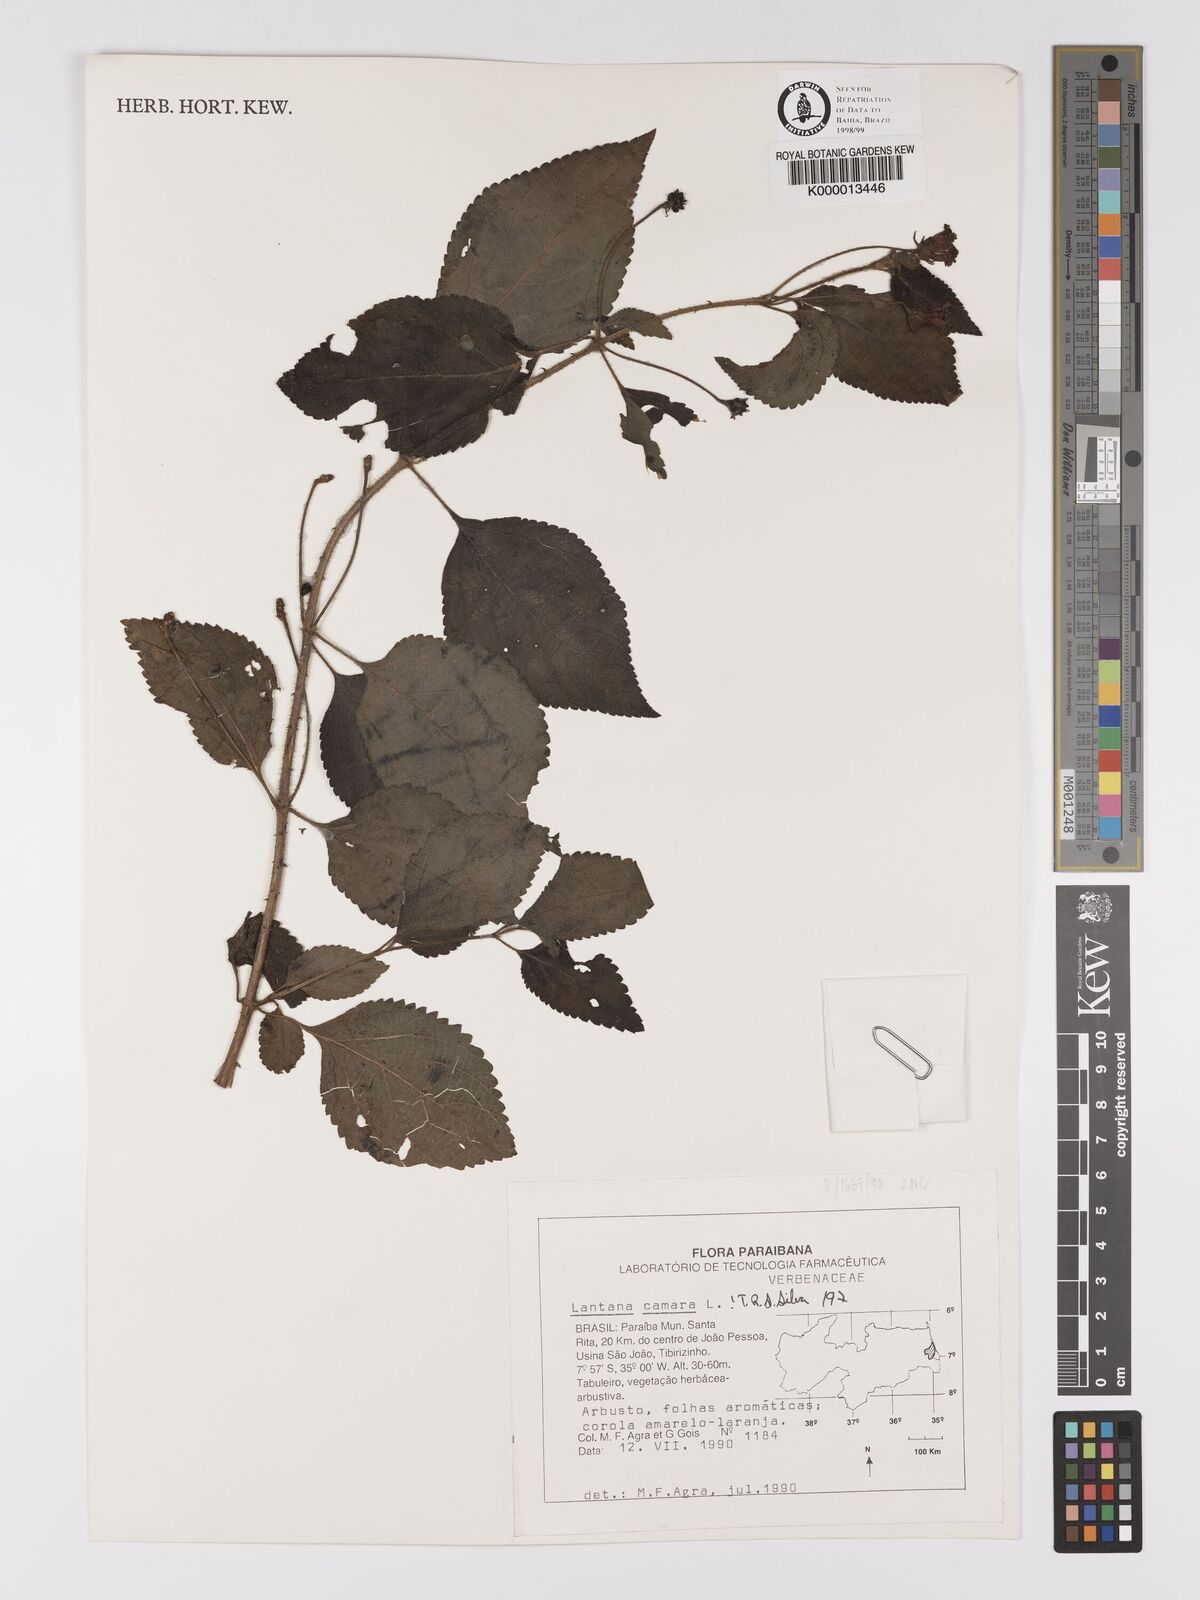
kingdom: Plantae
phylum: Tracheophyta
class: Magnoliopsida
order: Lamiales
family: Verbenaceae
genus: Lantana
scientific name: Lantana camara
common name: Lantana
